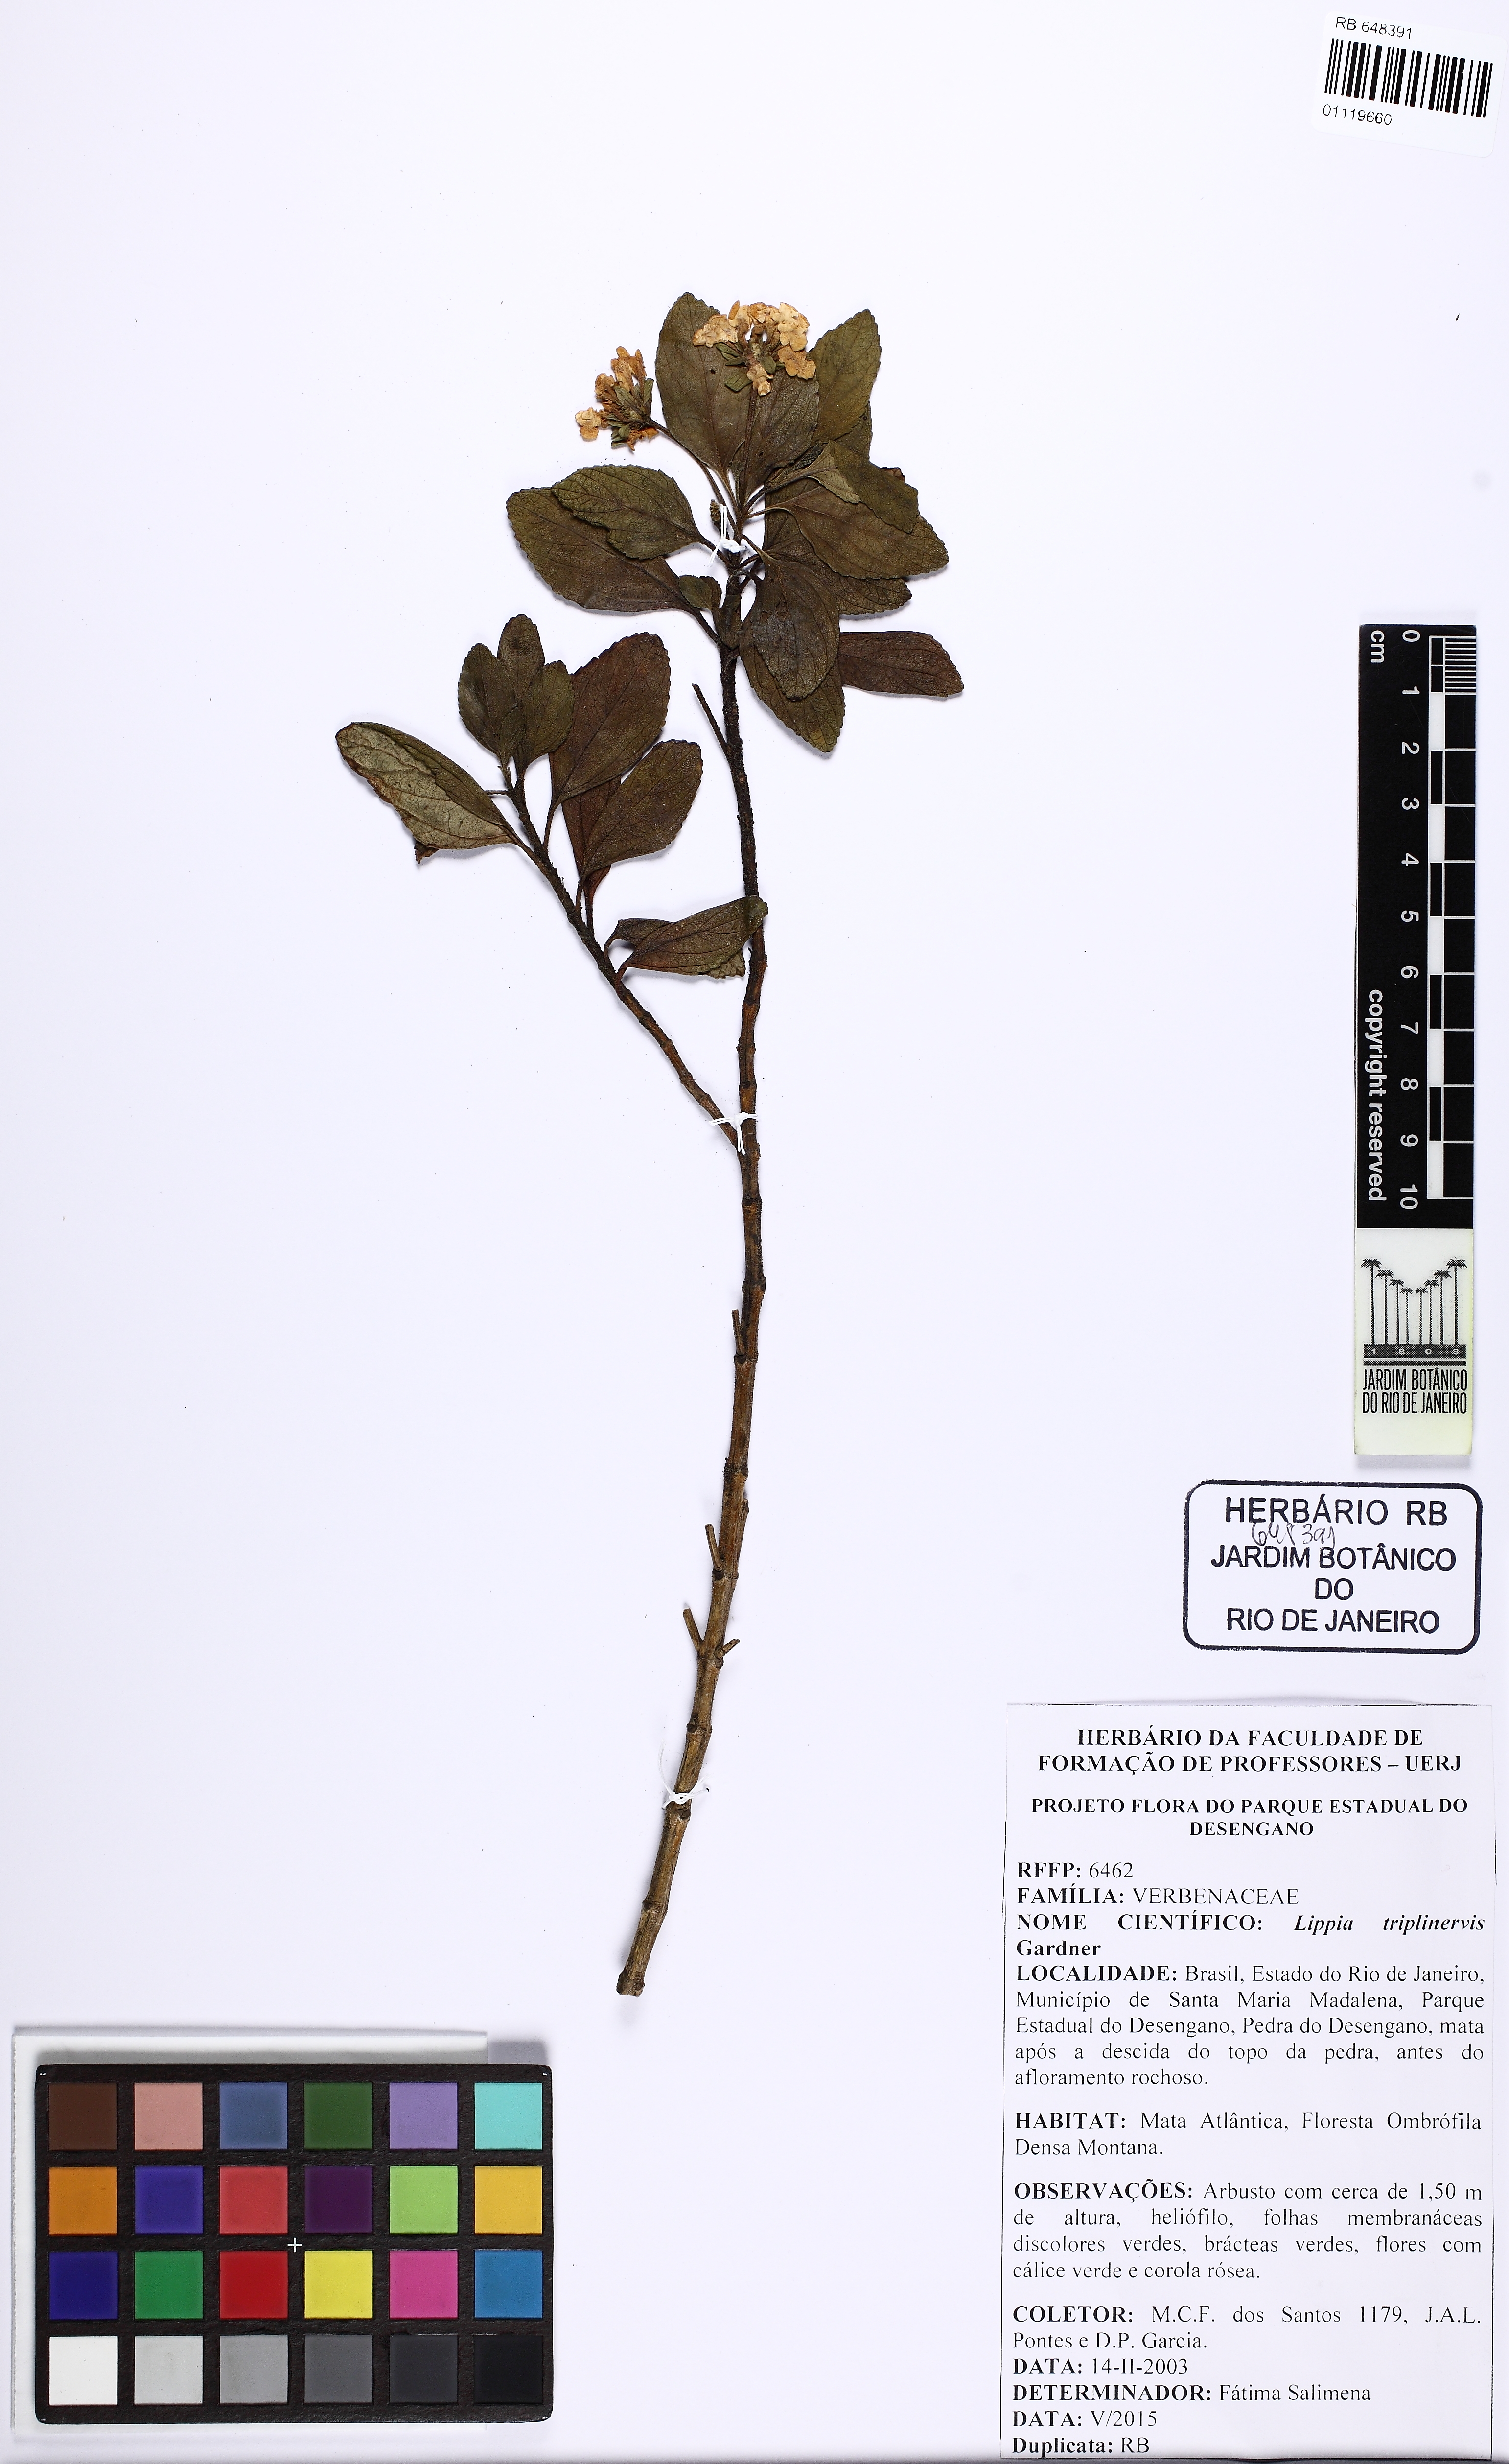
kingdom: Plantae
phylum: Tracheophyta
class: Magnoliopsida
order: Lamiales
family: Verbenaceae
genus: Lippia
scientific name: Lippia triplinervis
